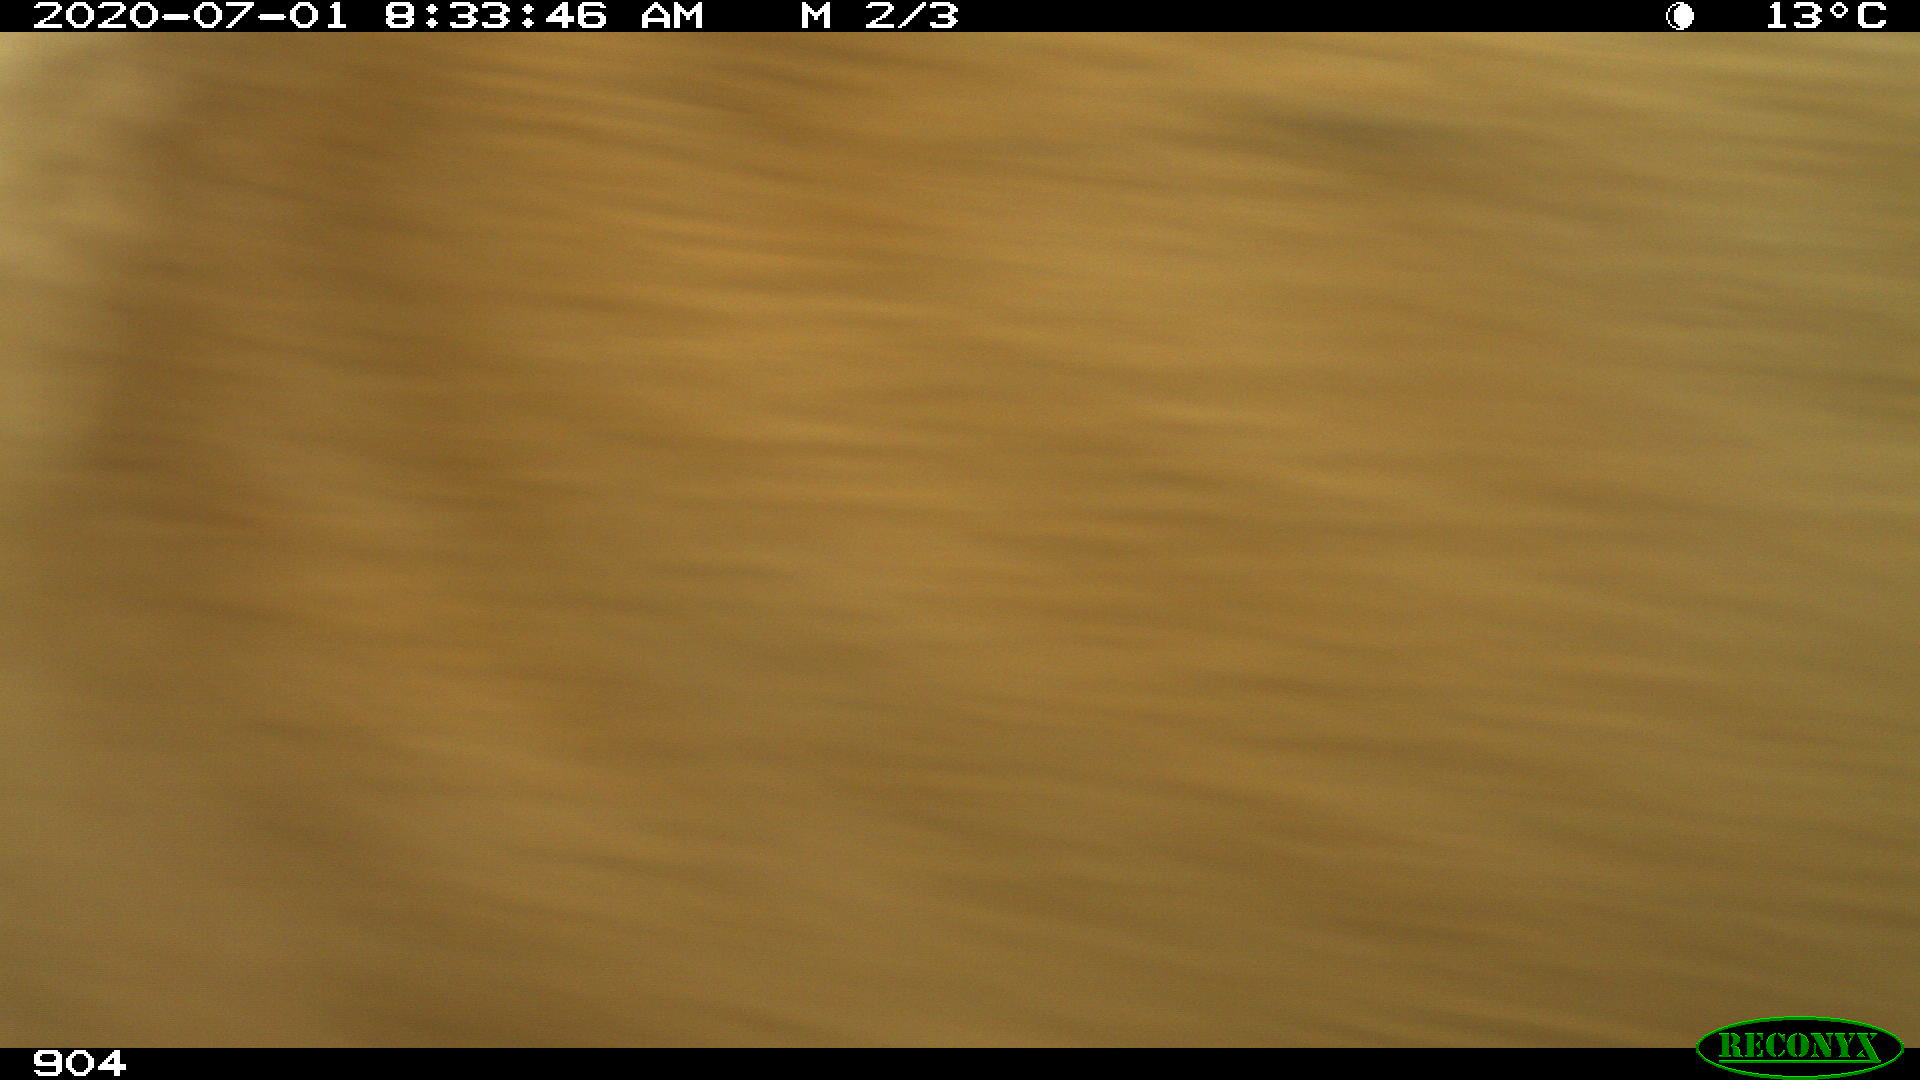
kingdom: Animalia
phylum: Chordata
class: Mammalia
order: Artiodactyla
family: Bovidae
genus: Bos
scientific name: Bos taurus
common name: Domesticated cattle
